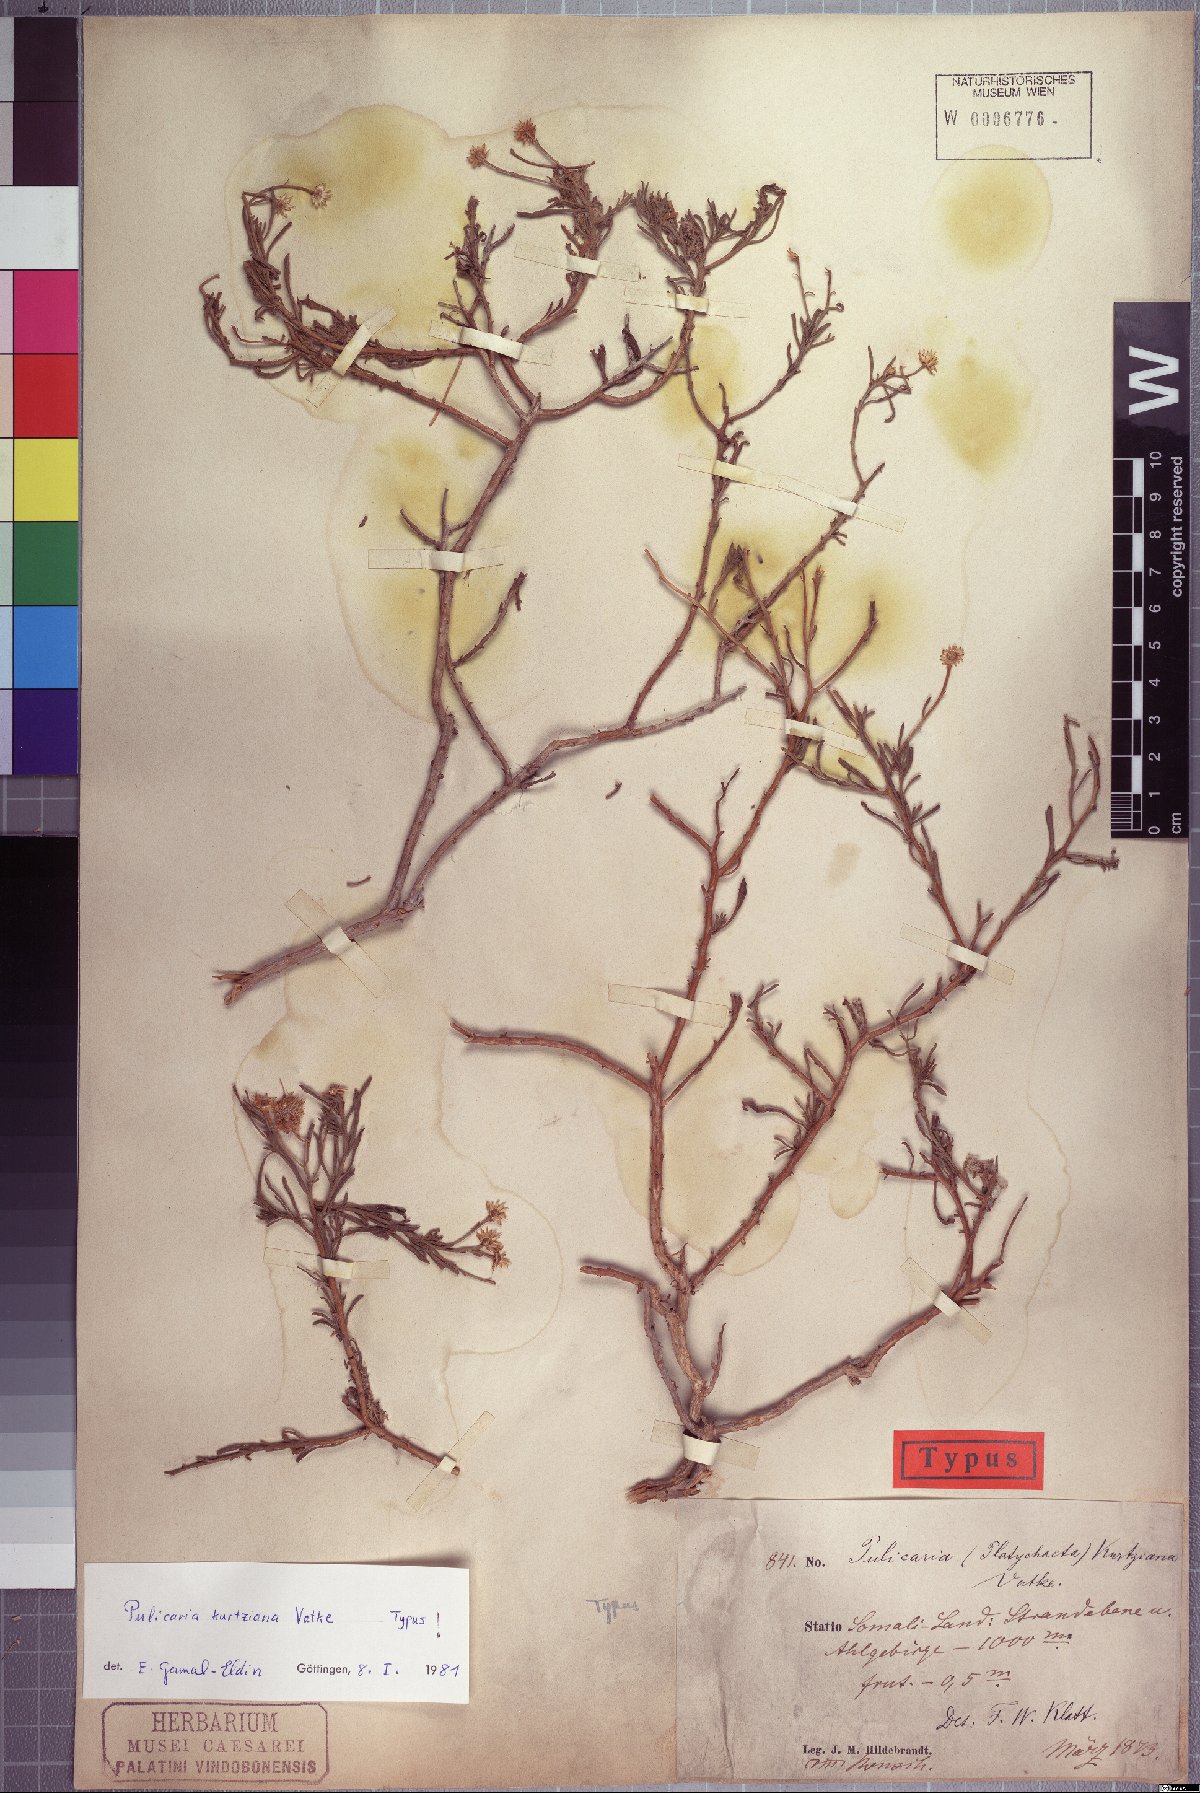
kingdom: Plantae
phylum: Tracheophyta
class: Magnoliopsida
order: Asterales
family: Asteraceae
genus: Pulicaria
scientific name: Pulicaria kurtziana
